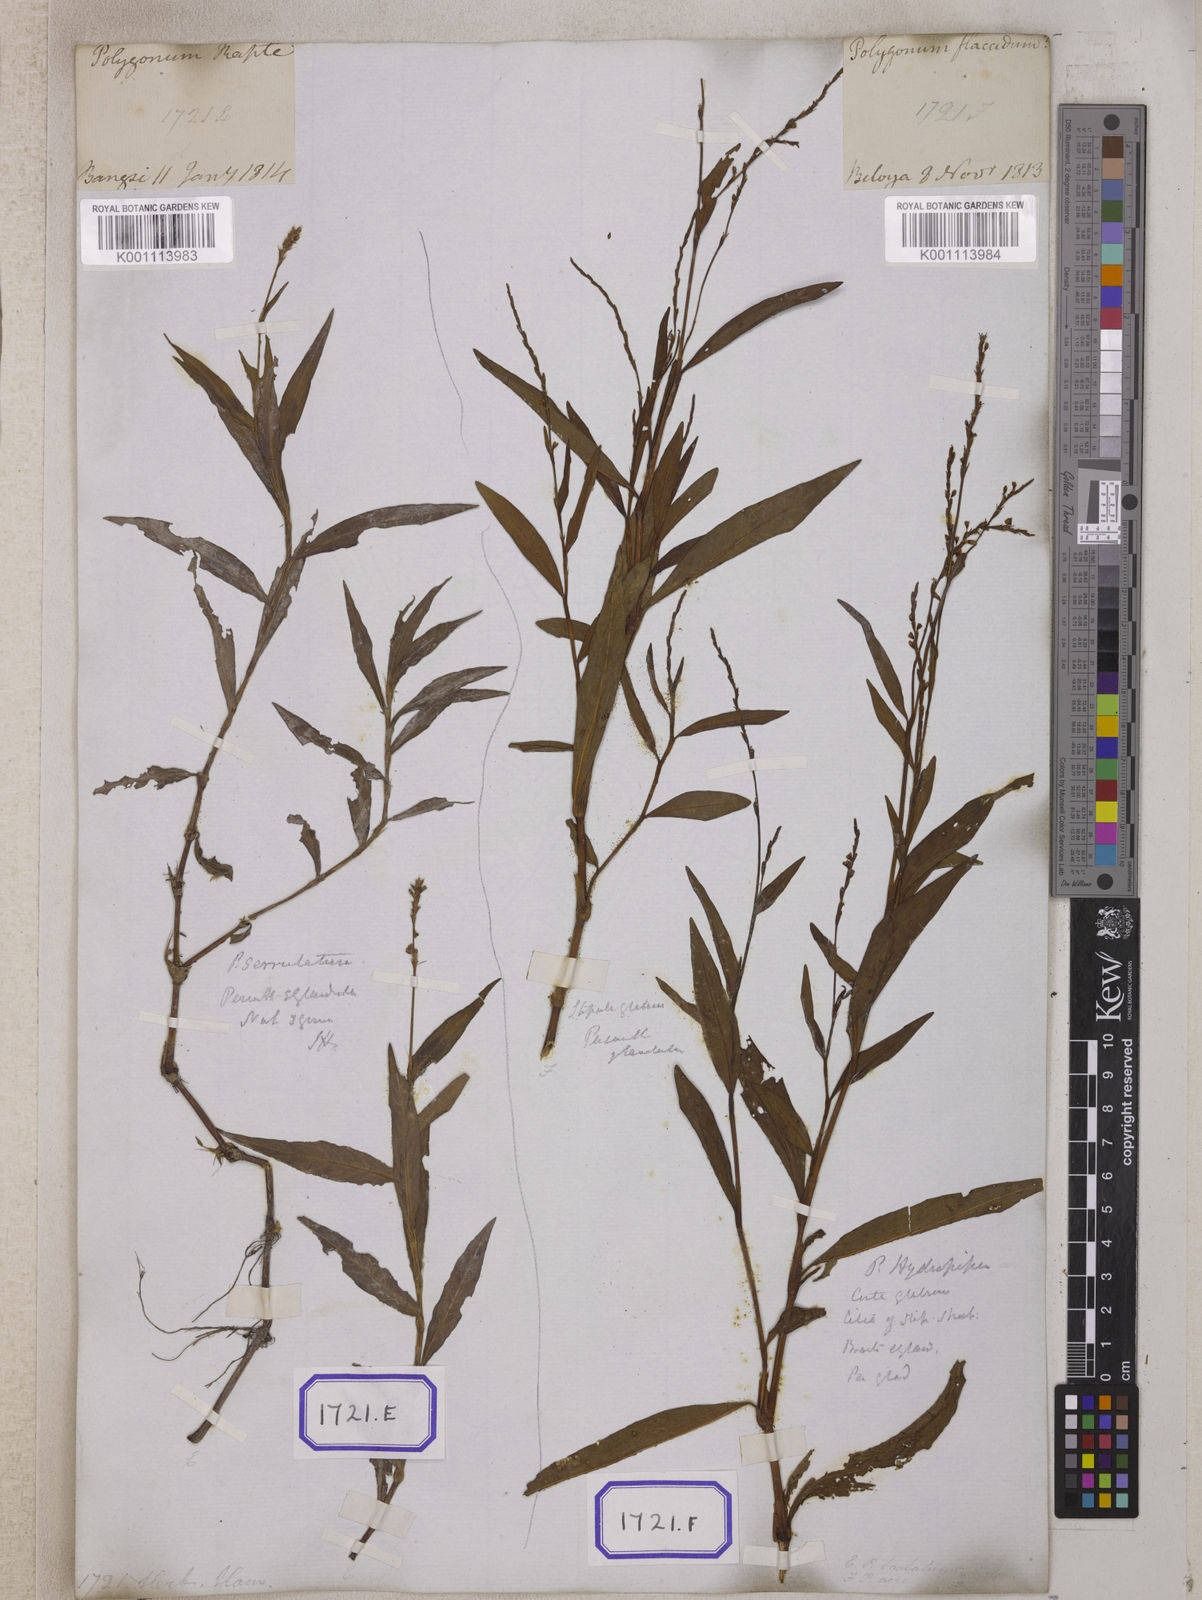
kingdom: Plantae
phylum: Tracheophyta
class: Magnoliopsida
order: Caryophyllales
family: Polygonaceae
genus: Persicaria
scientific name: Persicaria hydropiperoides
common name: Swamp smartweed
